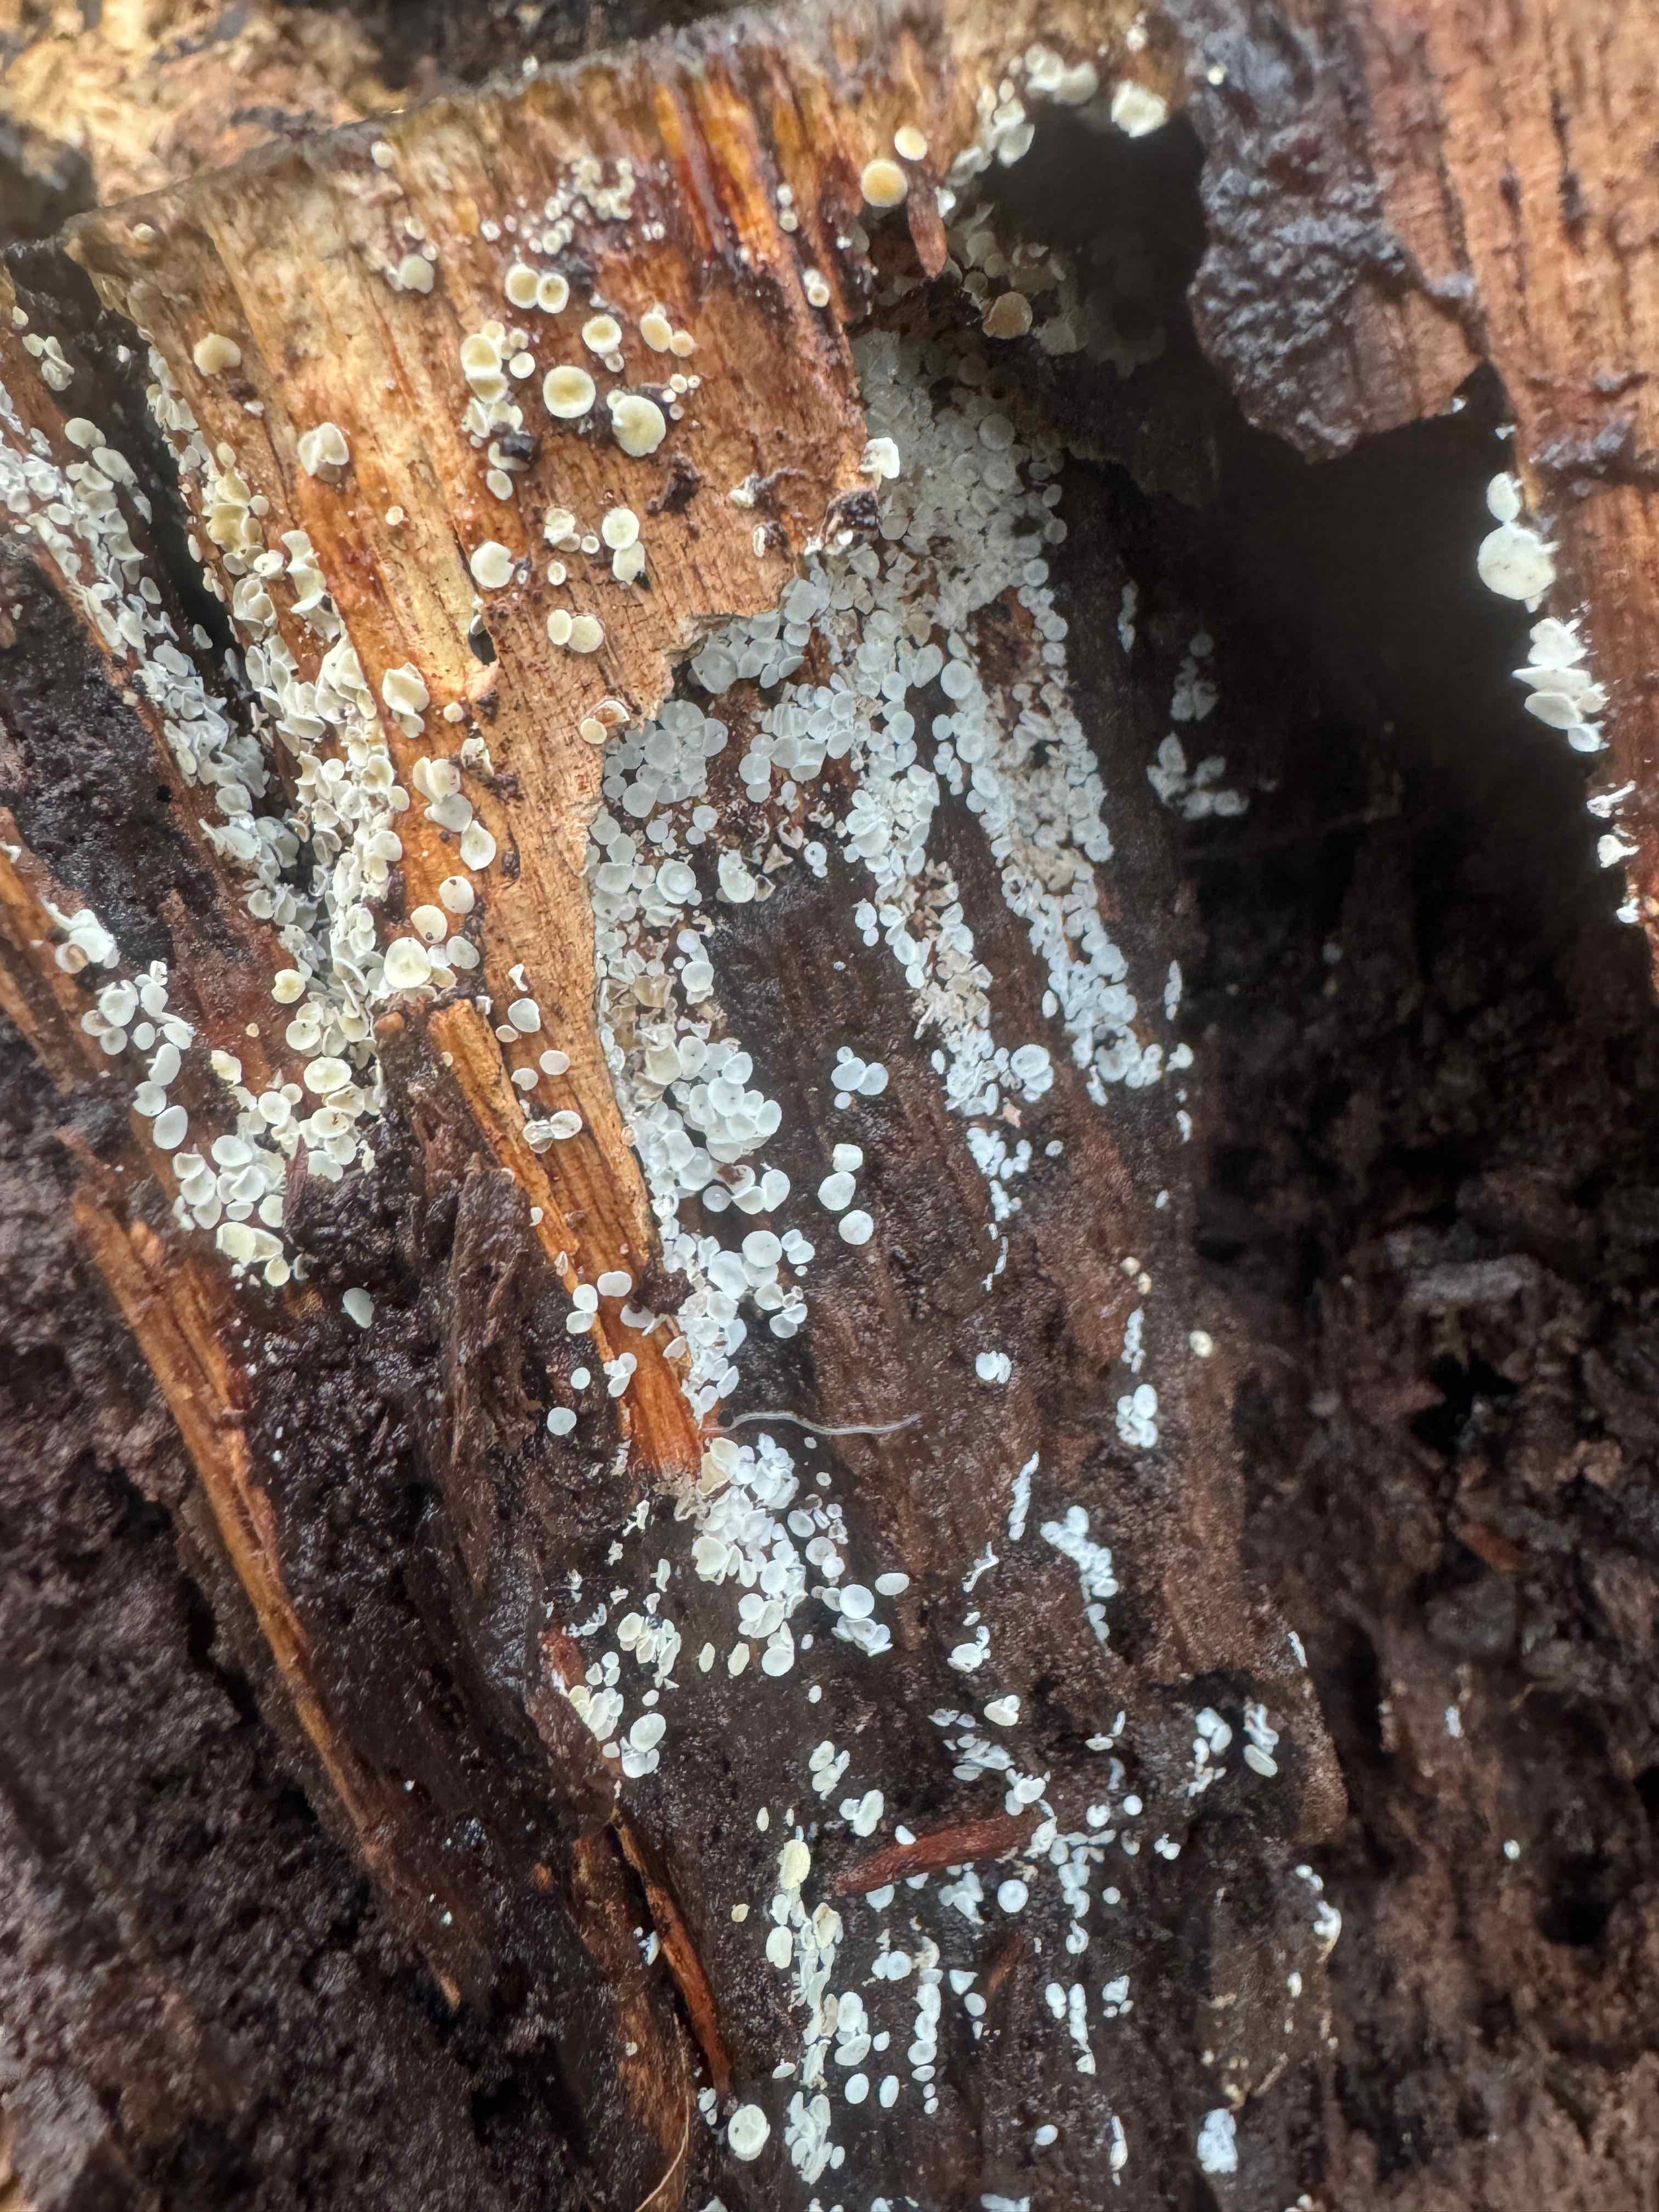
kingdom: Fungi
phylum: Ascomycota
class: Leotiomycetes
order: Helotiales
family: Lachnaceae
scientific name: Lachnaceae
